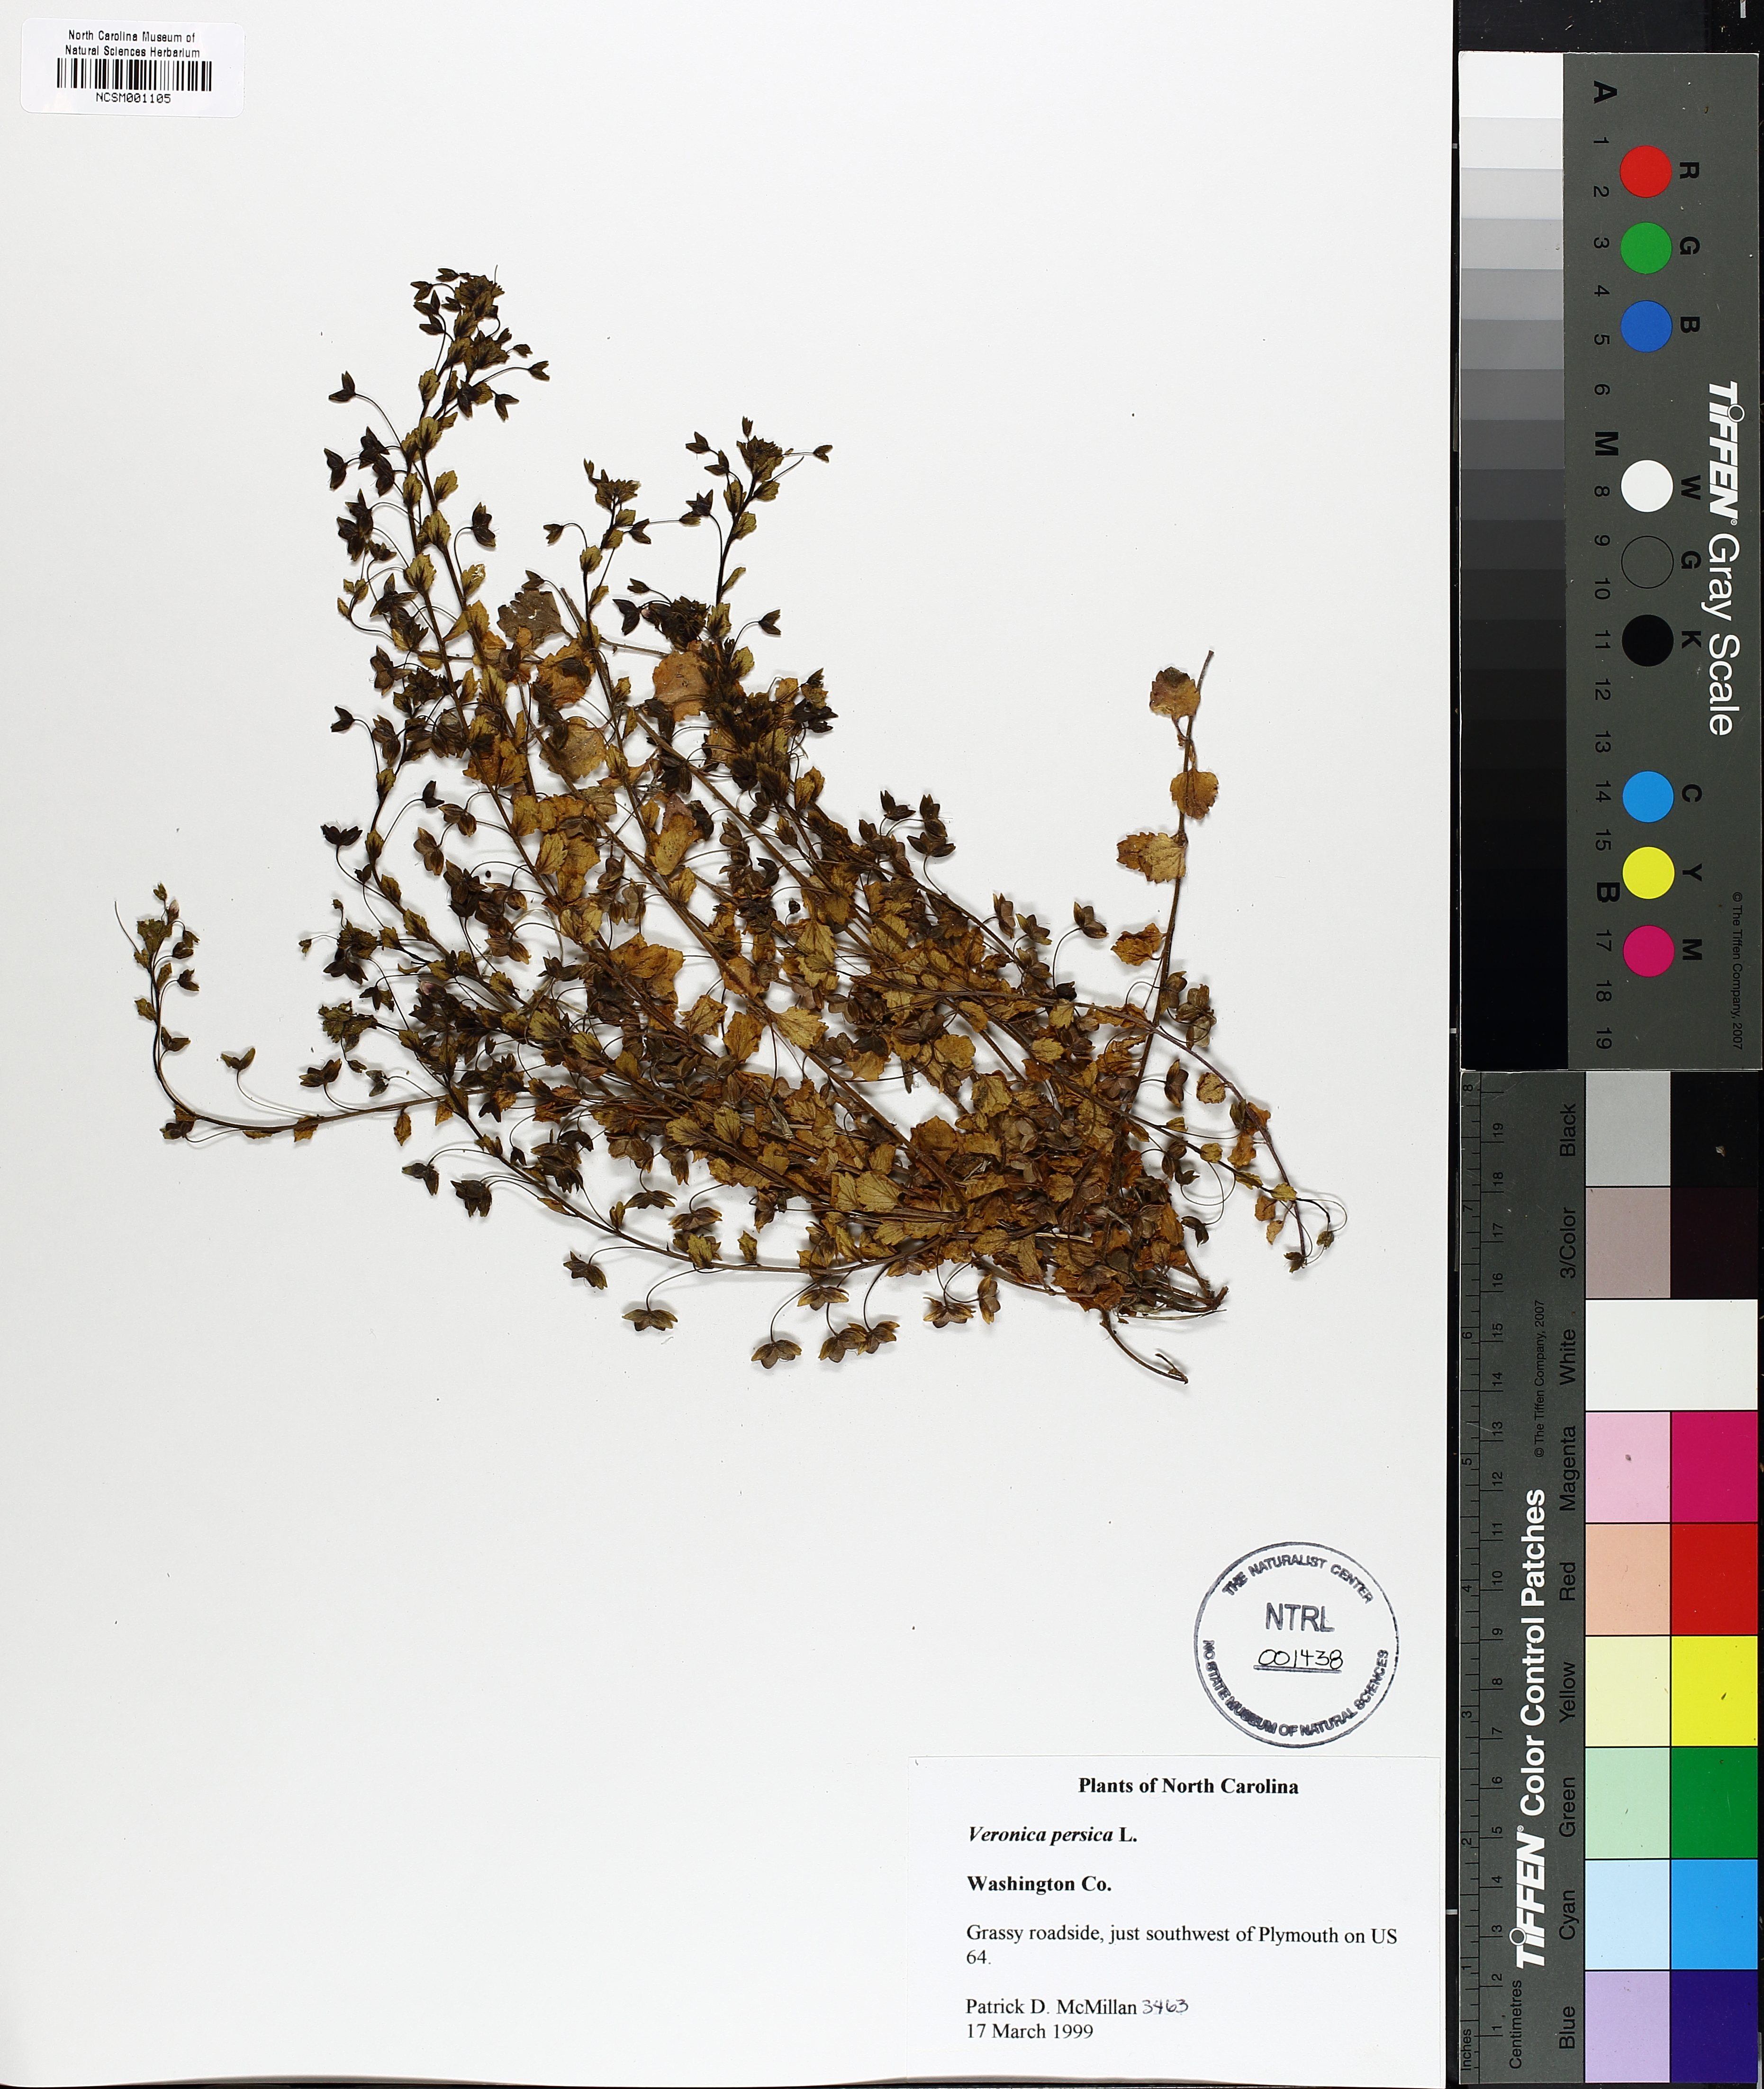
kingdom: Plantae
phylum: Tracheophyta
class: Magnoliopsida
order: Lamiales
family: Plantaginaceae
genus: Veronica
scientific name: Veronica persica
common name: Common field-speedwell
